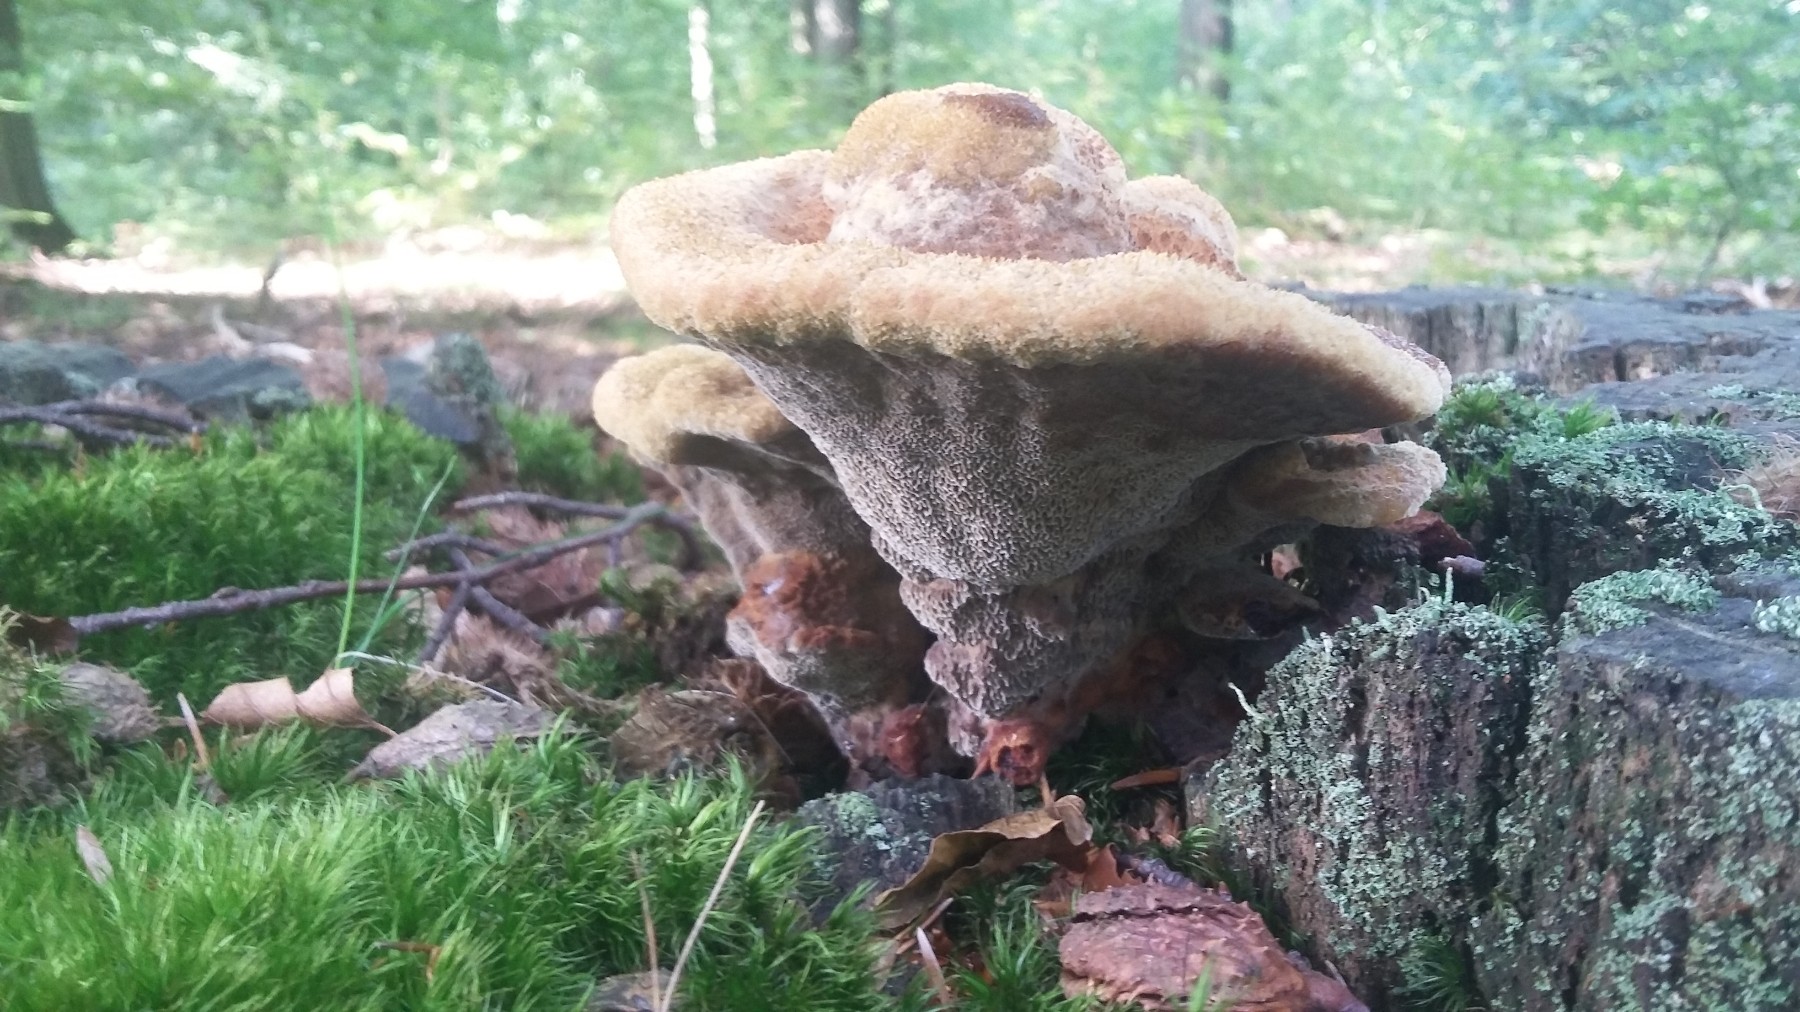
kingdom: Fungi
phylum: Basidiomycota
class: Agaricomycetes
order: Polyporales
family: Laetiporaceae
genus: Phaeolus
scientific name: Phaeolus schweinitzii
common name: brunporesvamp
